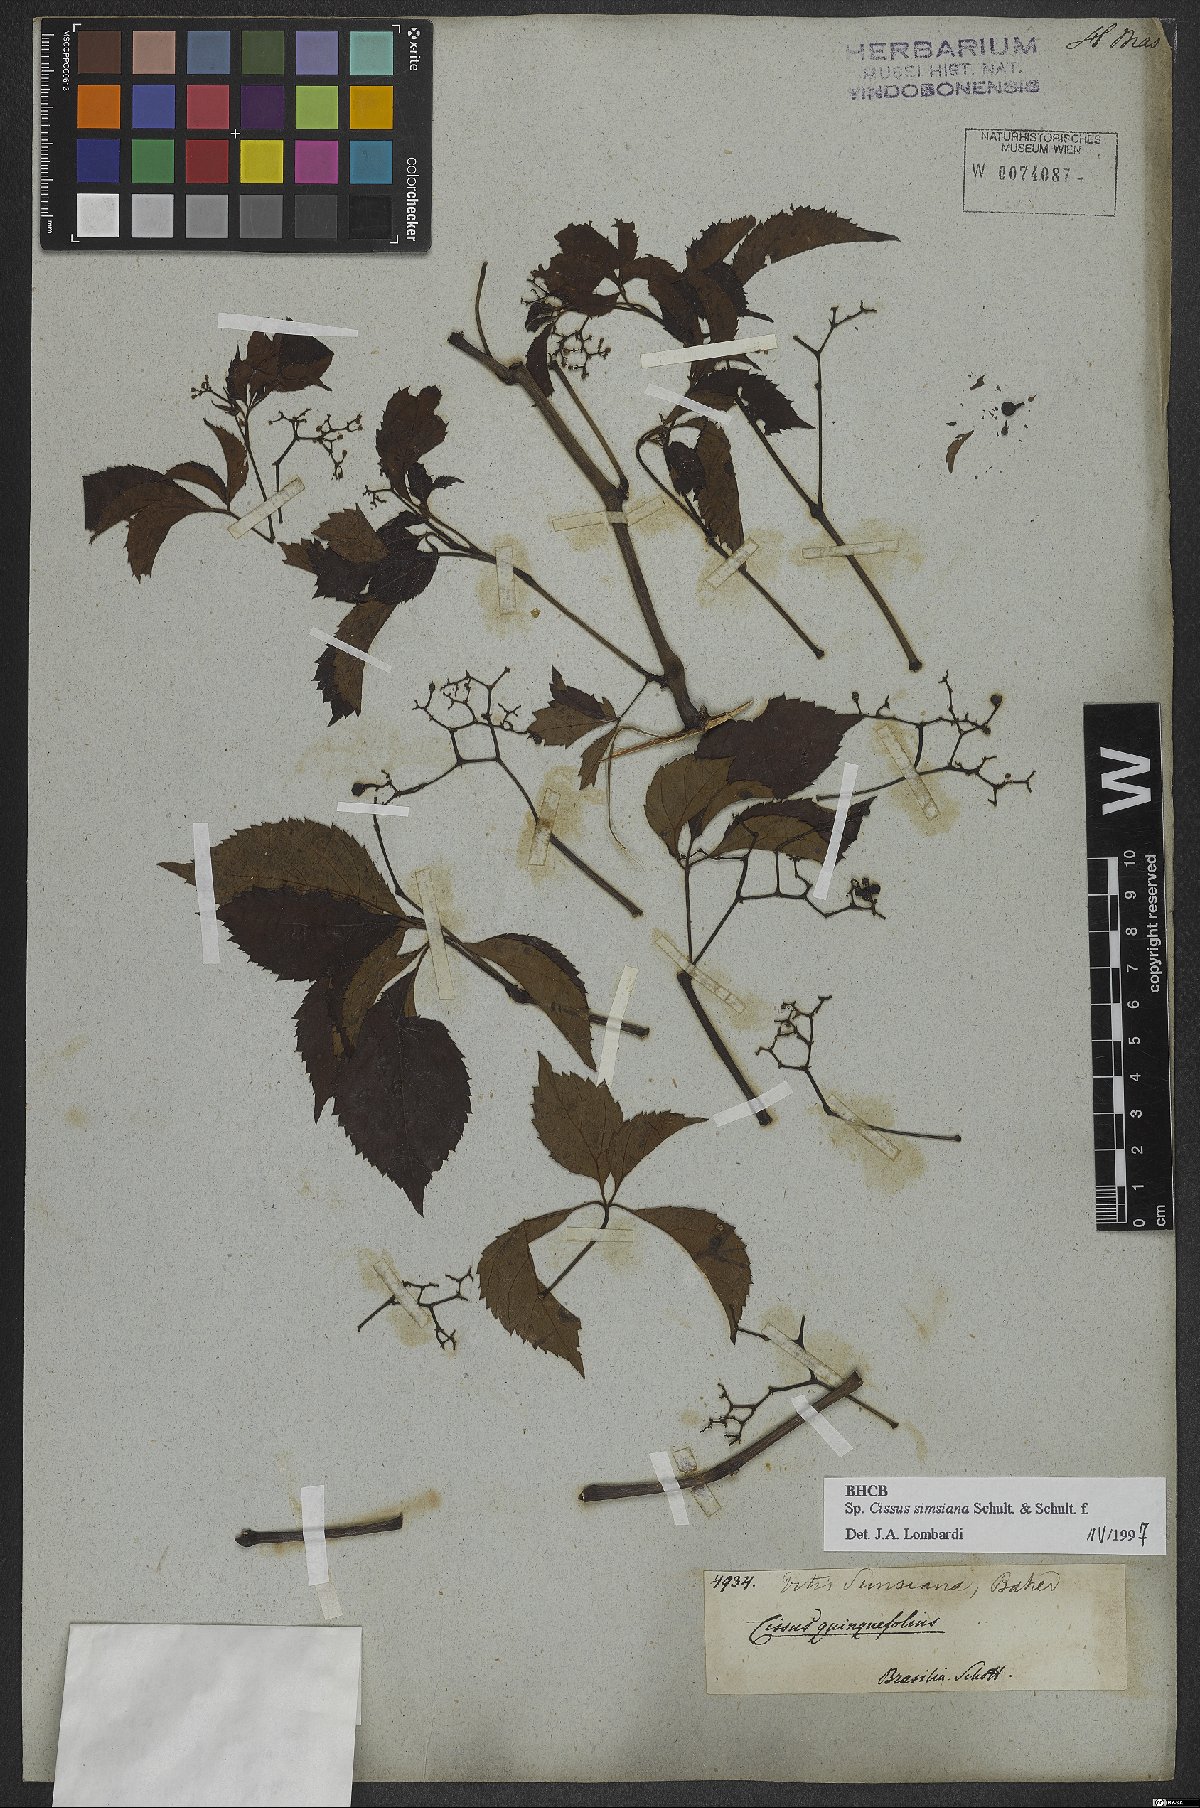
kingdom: Plantae
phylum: Tracheophyta
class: Magnoliopsida
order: Vitales
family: Vitaceae
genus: Clematicissus
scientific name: Clematicissus simsiana
